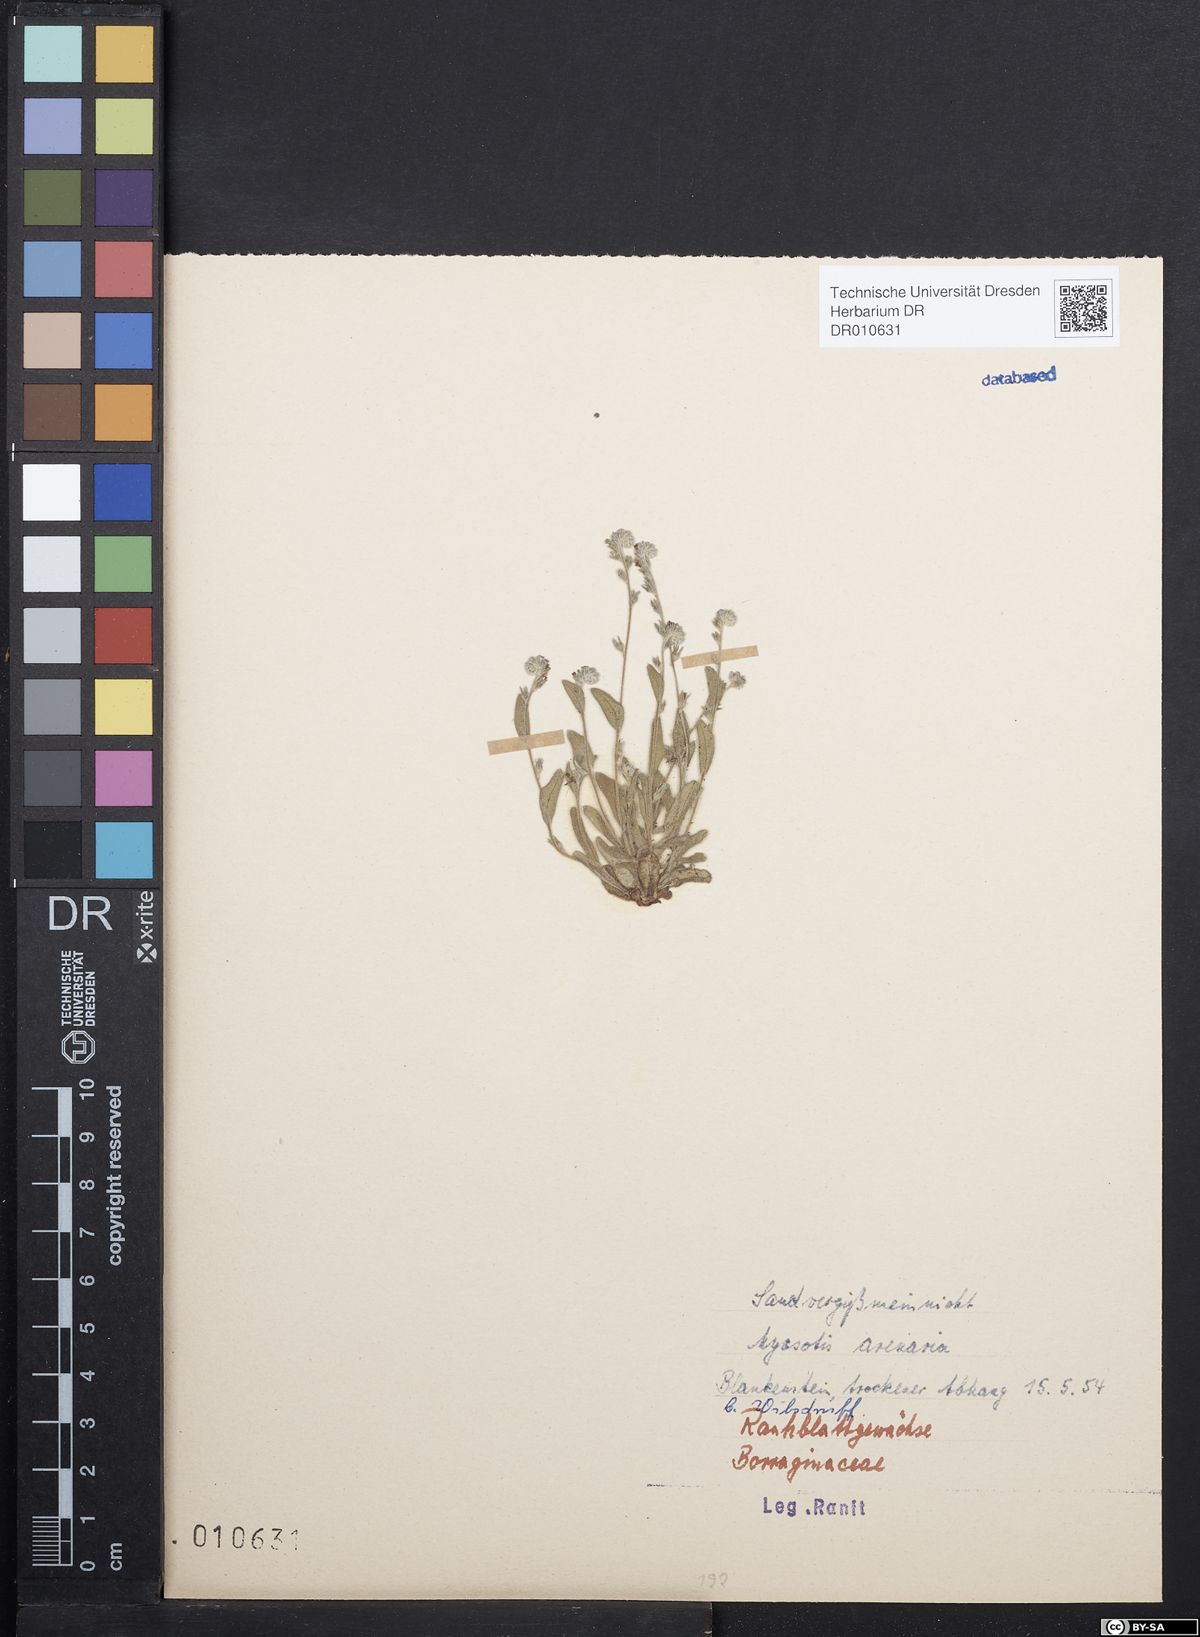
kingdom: Plantae
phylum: Tracheophyta
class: Magnoliopsida
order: Boraginales
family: Boraginaceae
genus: Myosotis
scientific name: Myosotis stricta
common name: Strict forget-me-not
